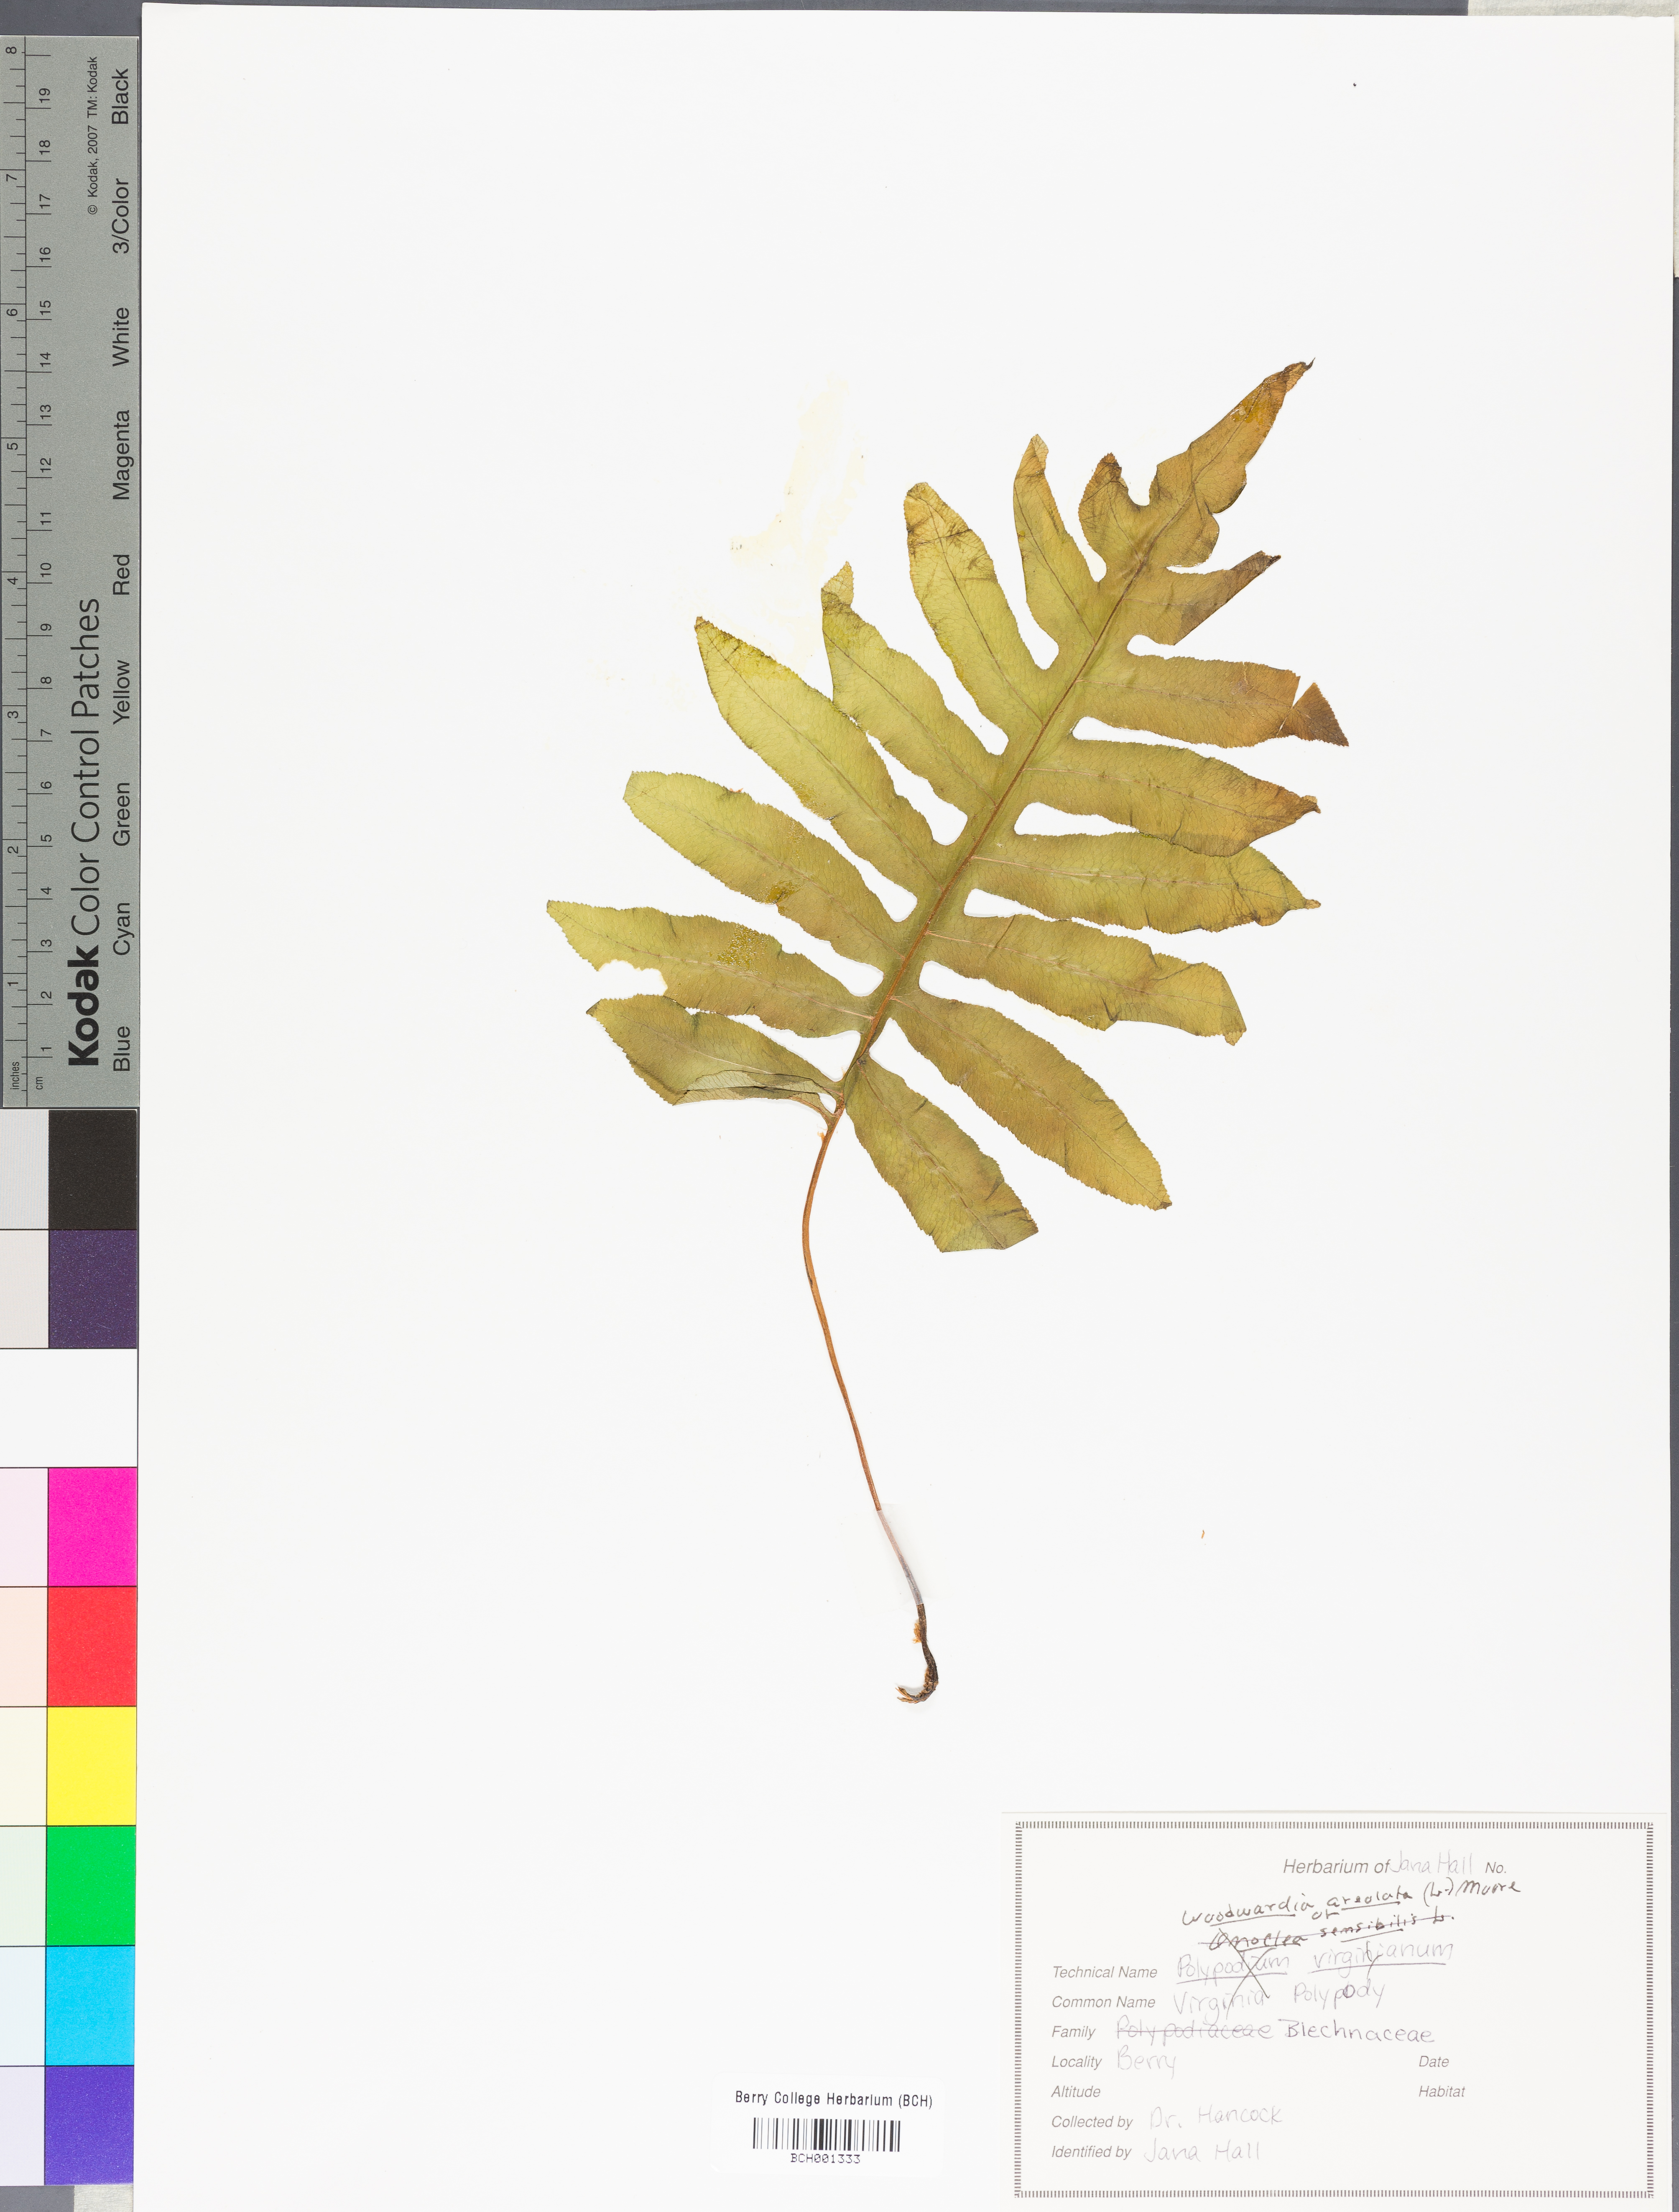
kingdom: Plantae
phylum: Tracheophyta
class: Polypodiopsida
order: Polypodiales
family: Blechnaceae
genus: Lorinseria
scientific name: Lorinseria areolata
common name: Dwarf chain fern
